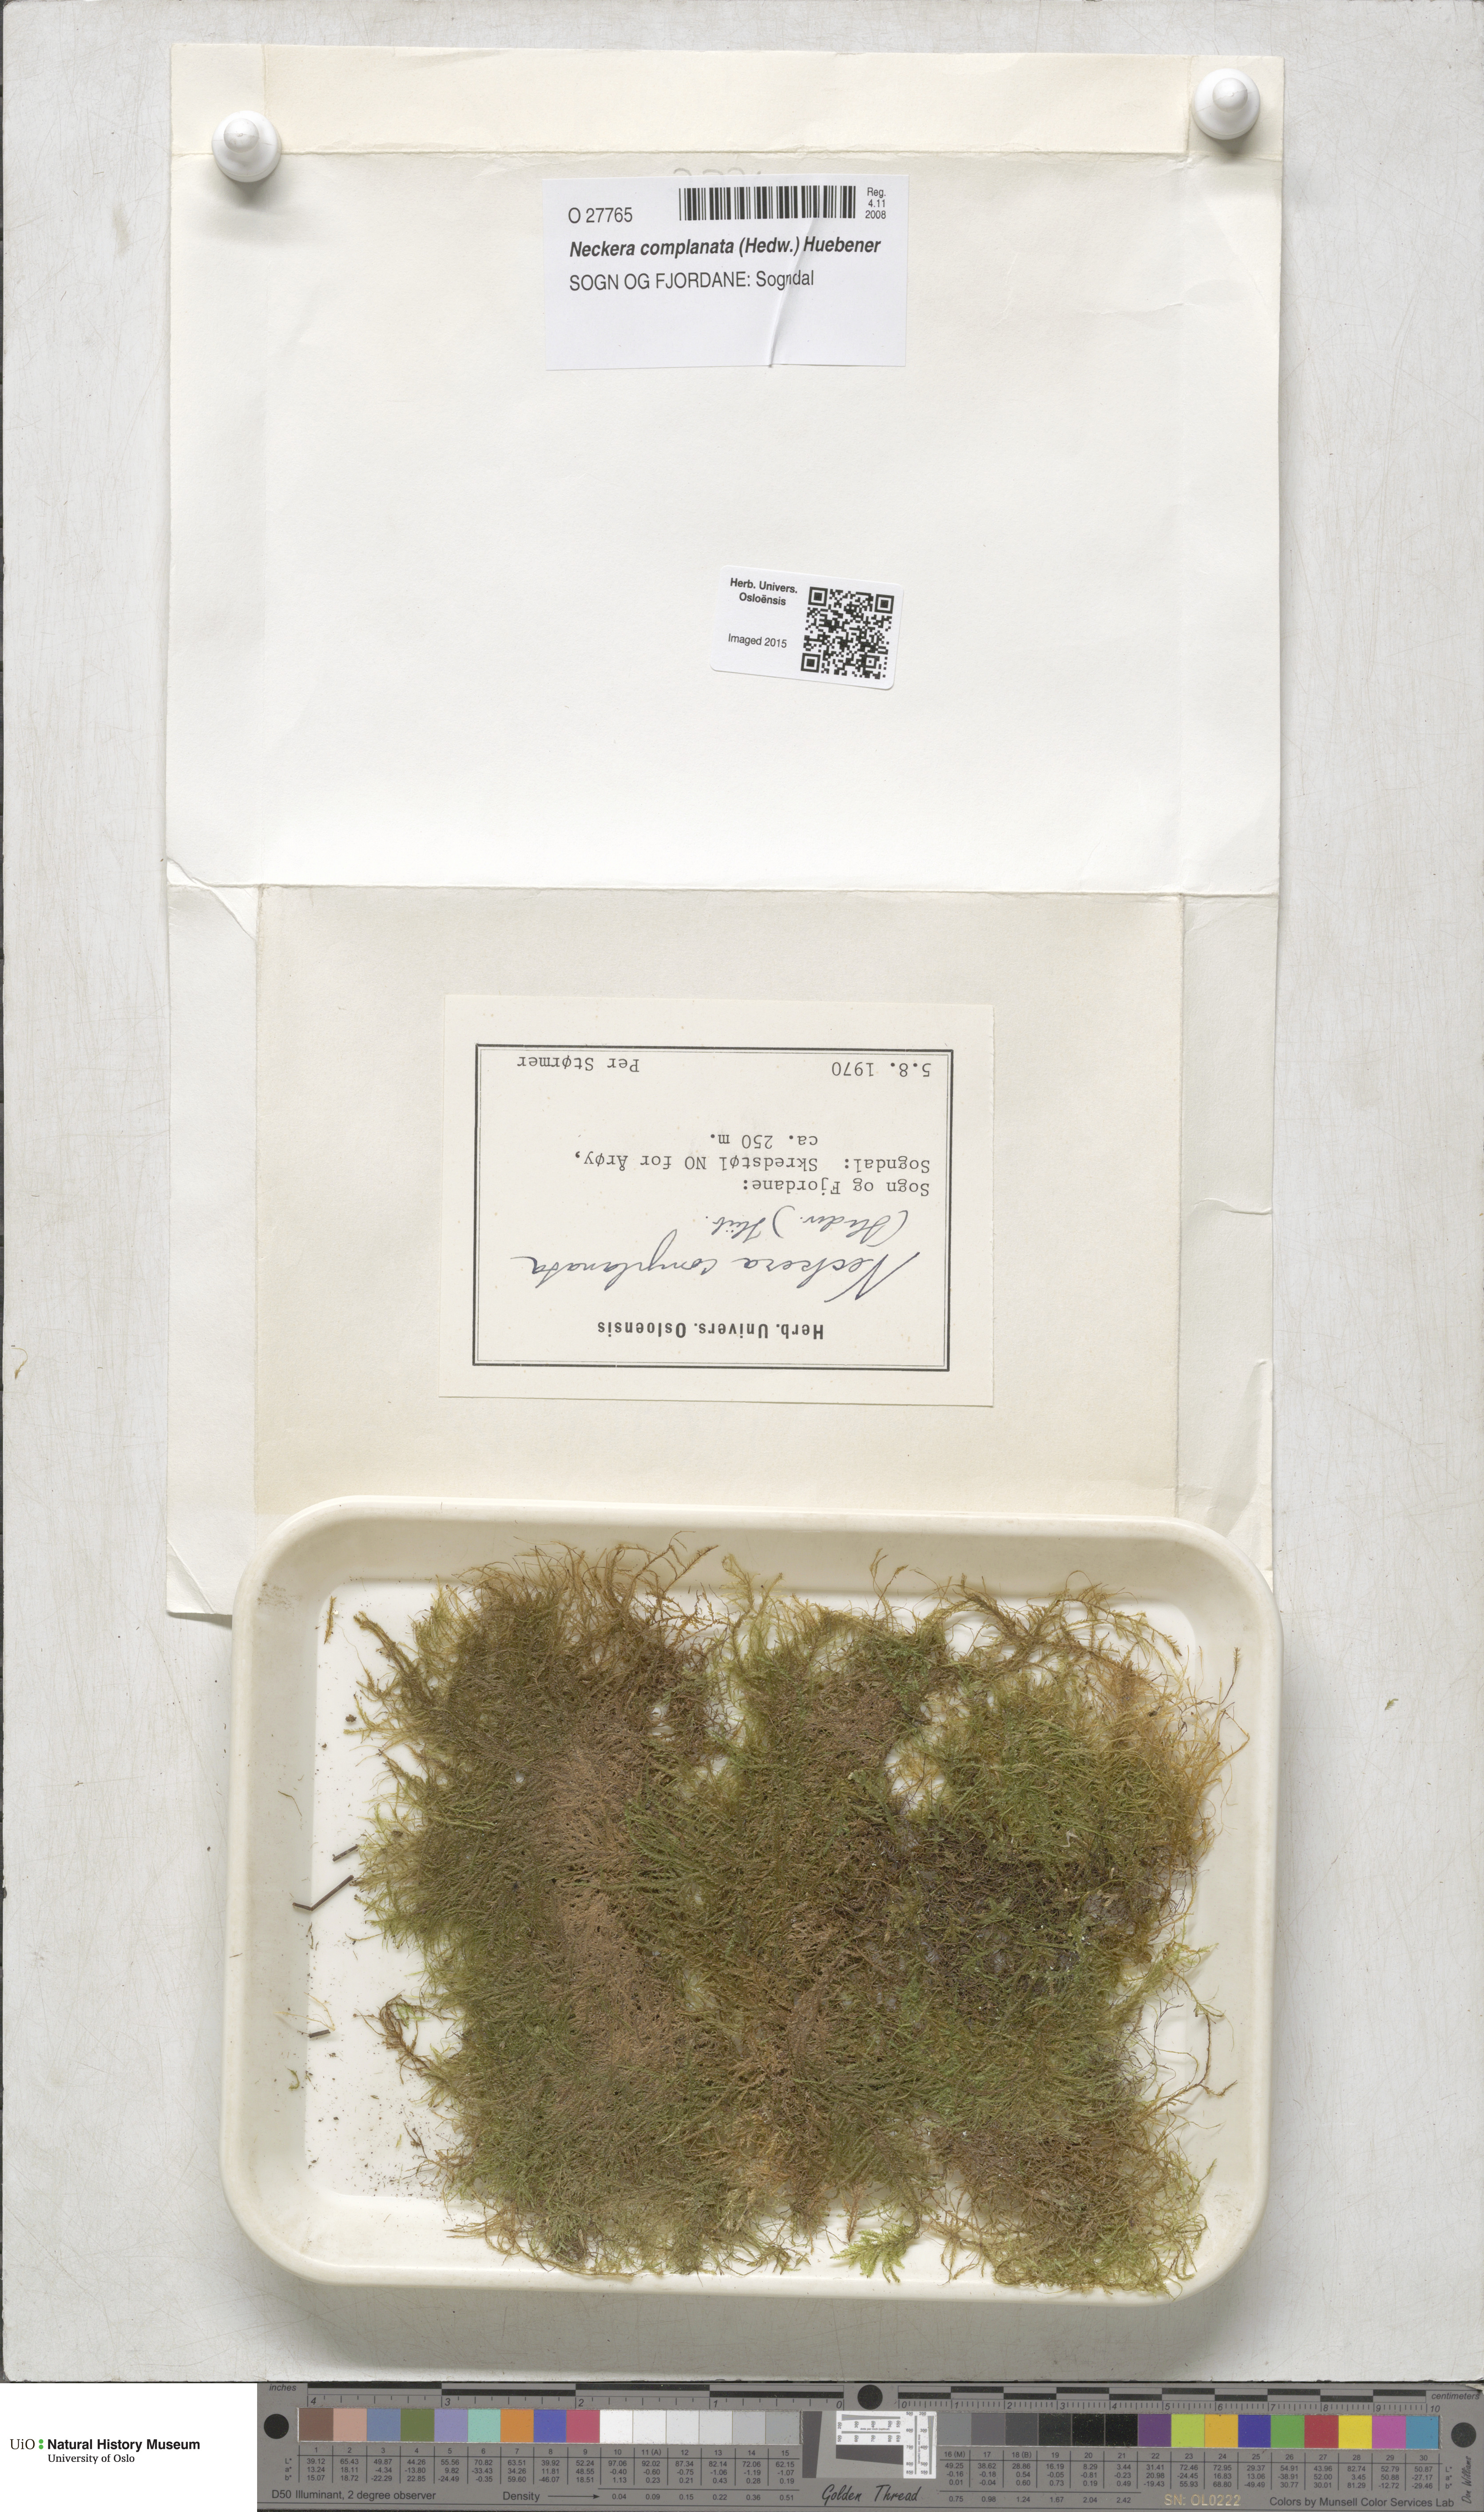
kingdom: Plantae
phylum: Bryophyta
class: Bryopsida
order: Hypnales
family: Neckeraceae
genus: Alleniella
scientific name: Alleniella complanata
